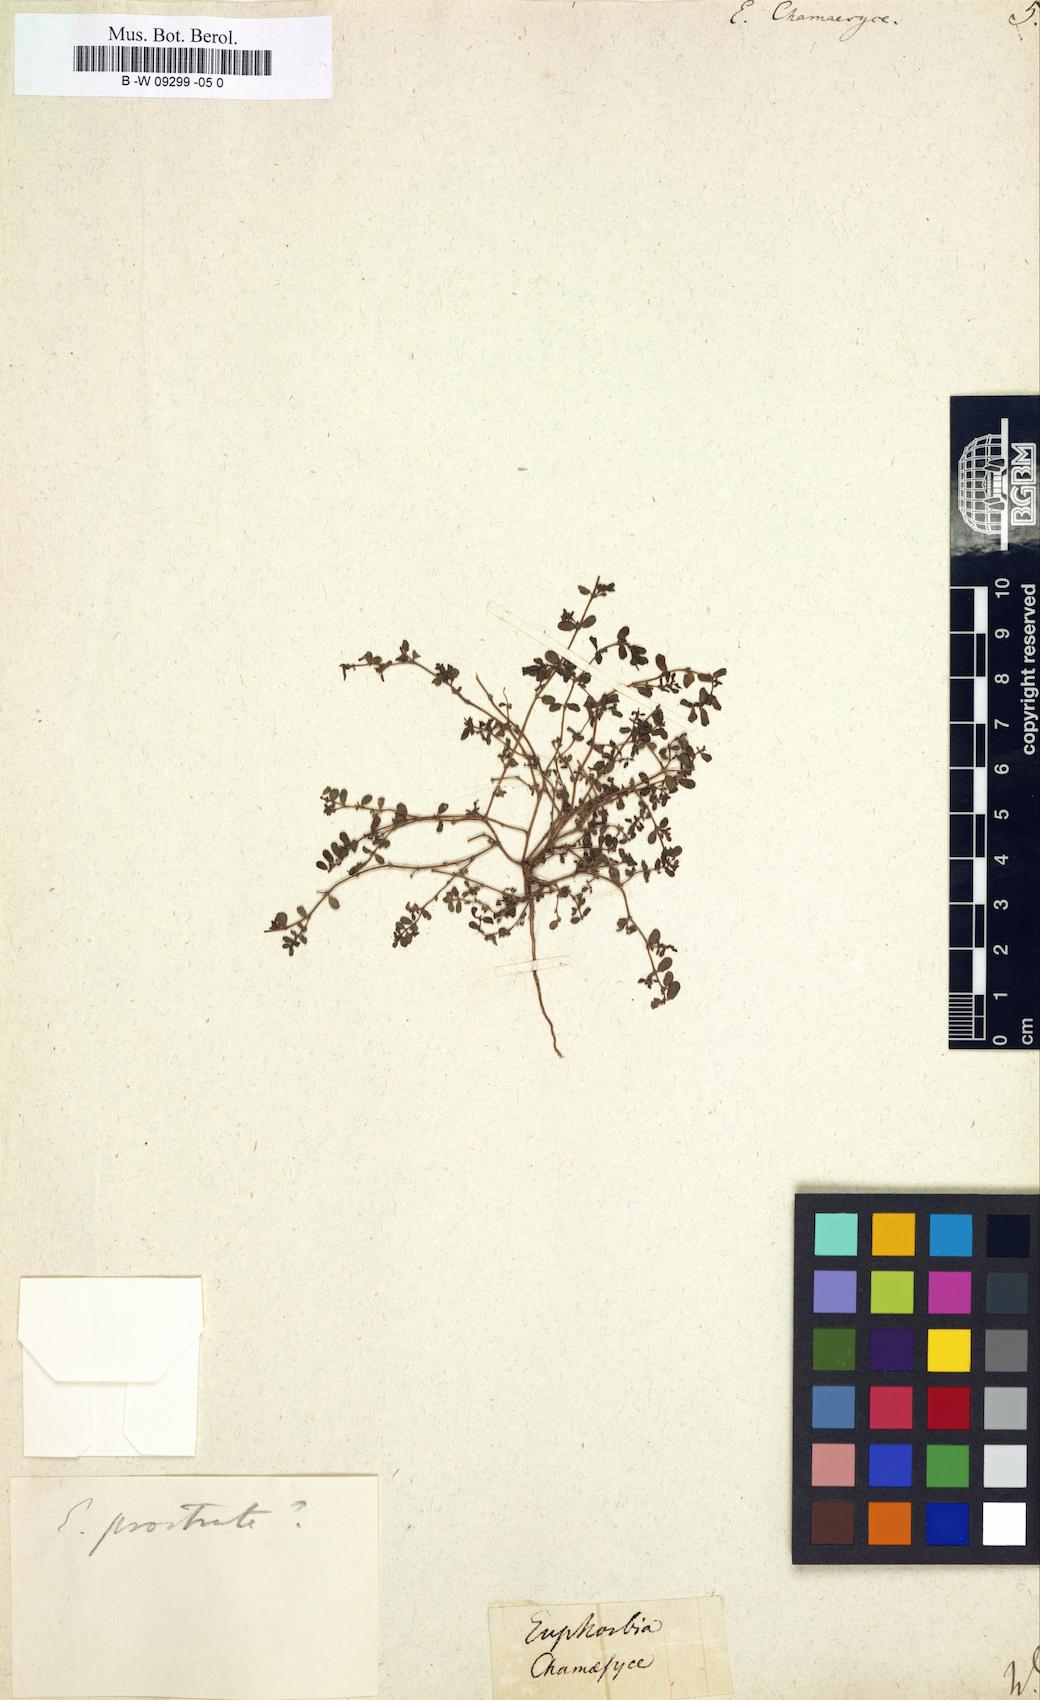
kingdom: Plantae
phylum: Tracheophyta
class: Magnoliopsida
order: Malpighiales
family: Euphorbiaceae
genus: Euphorbia
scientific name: Euphorbia chamaesyce
